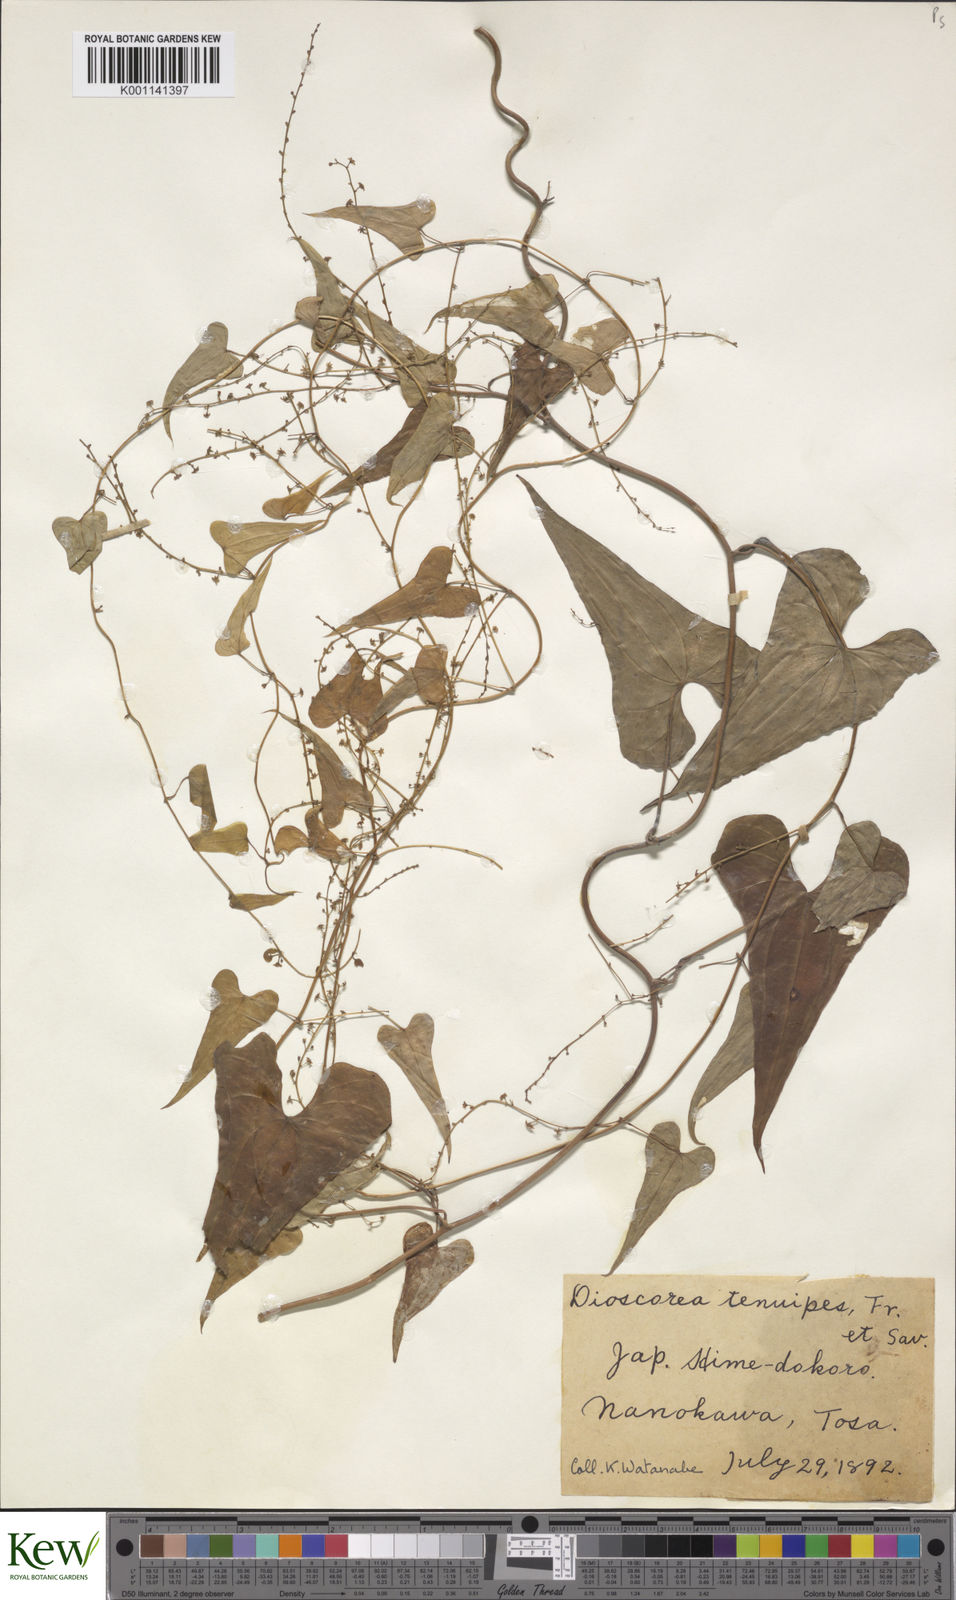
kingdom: Plantae
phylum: Tracheophyta
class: Liliopsida
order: Dioscoreales
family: Dioscoreaceae
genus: Dioscorea
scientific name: Dioscorea tenuipes
